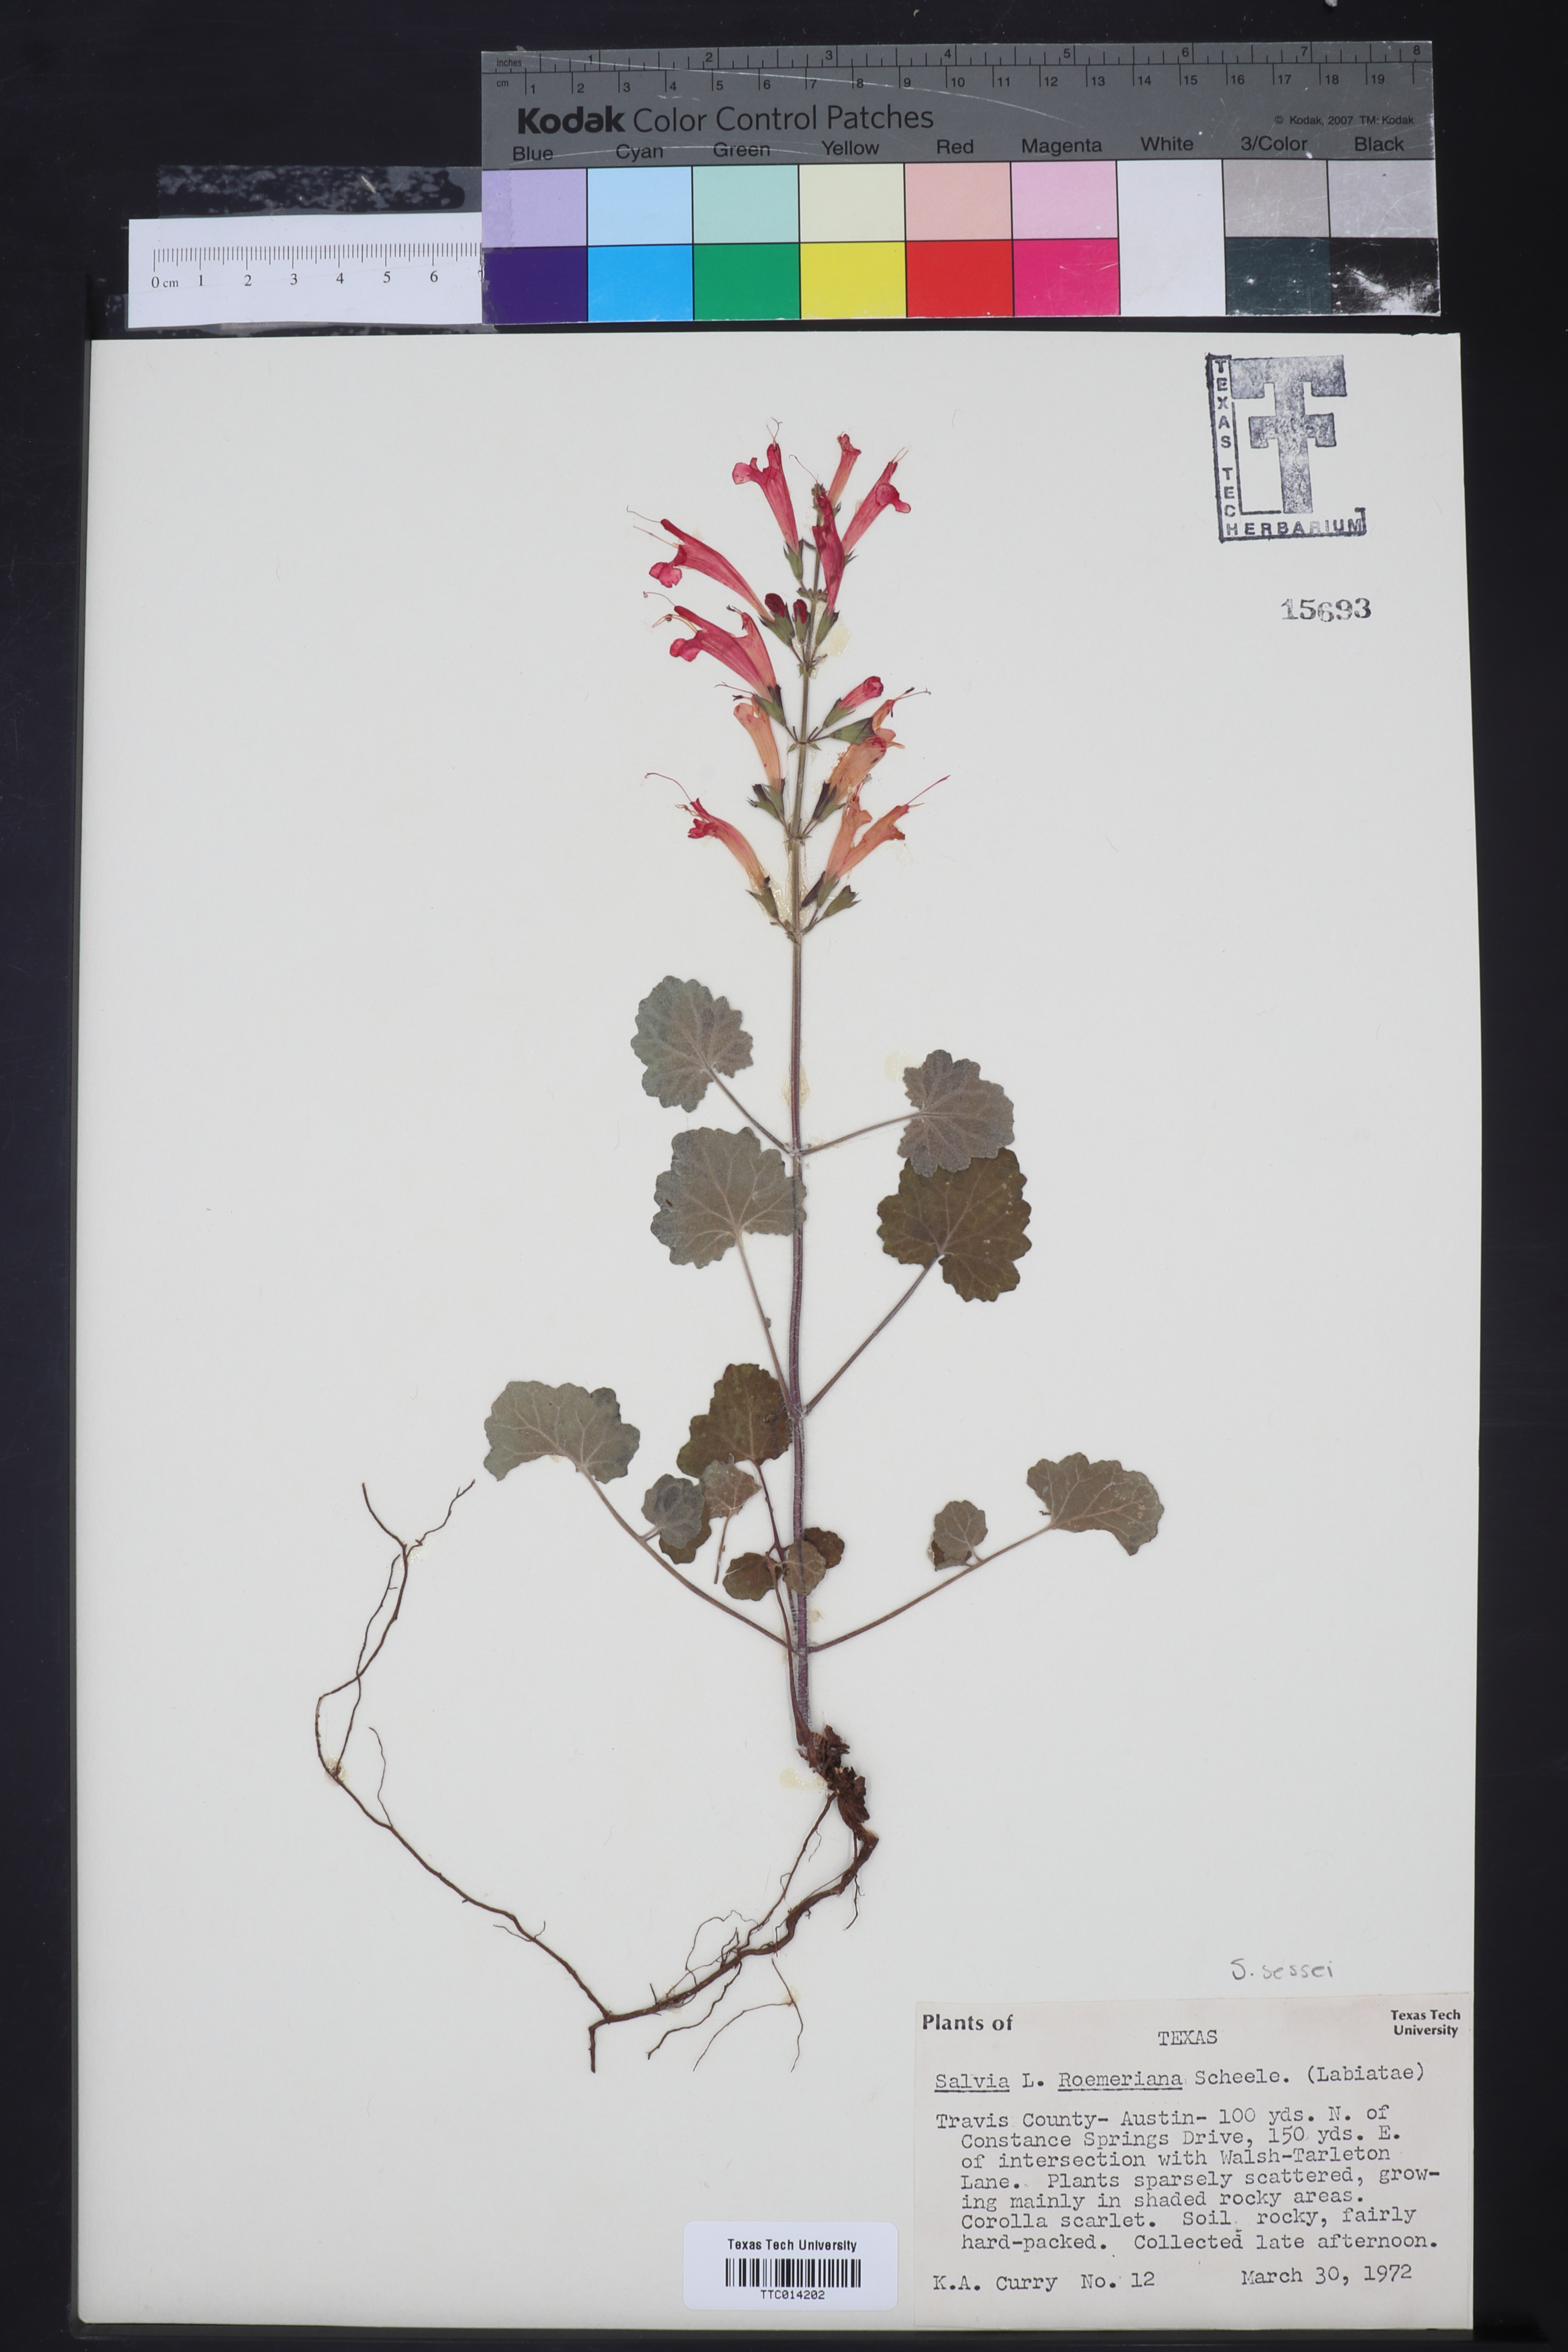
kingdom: Plantae
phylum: Tracheophyta
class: Magnoliopsida
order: Lamiales
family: Lamiaceae
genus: Salvia
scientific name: Salvia roemeriana
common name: Cedar sage
